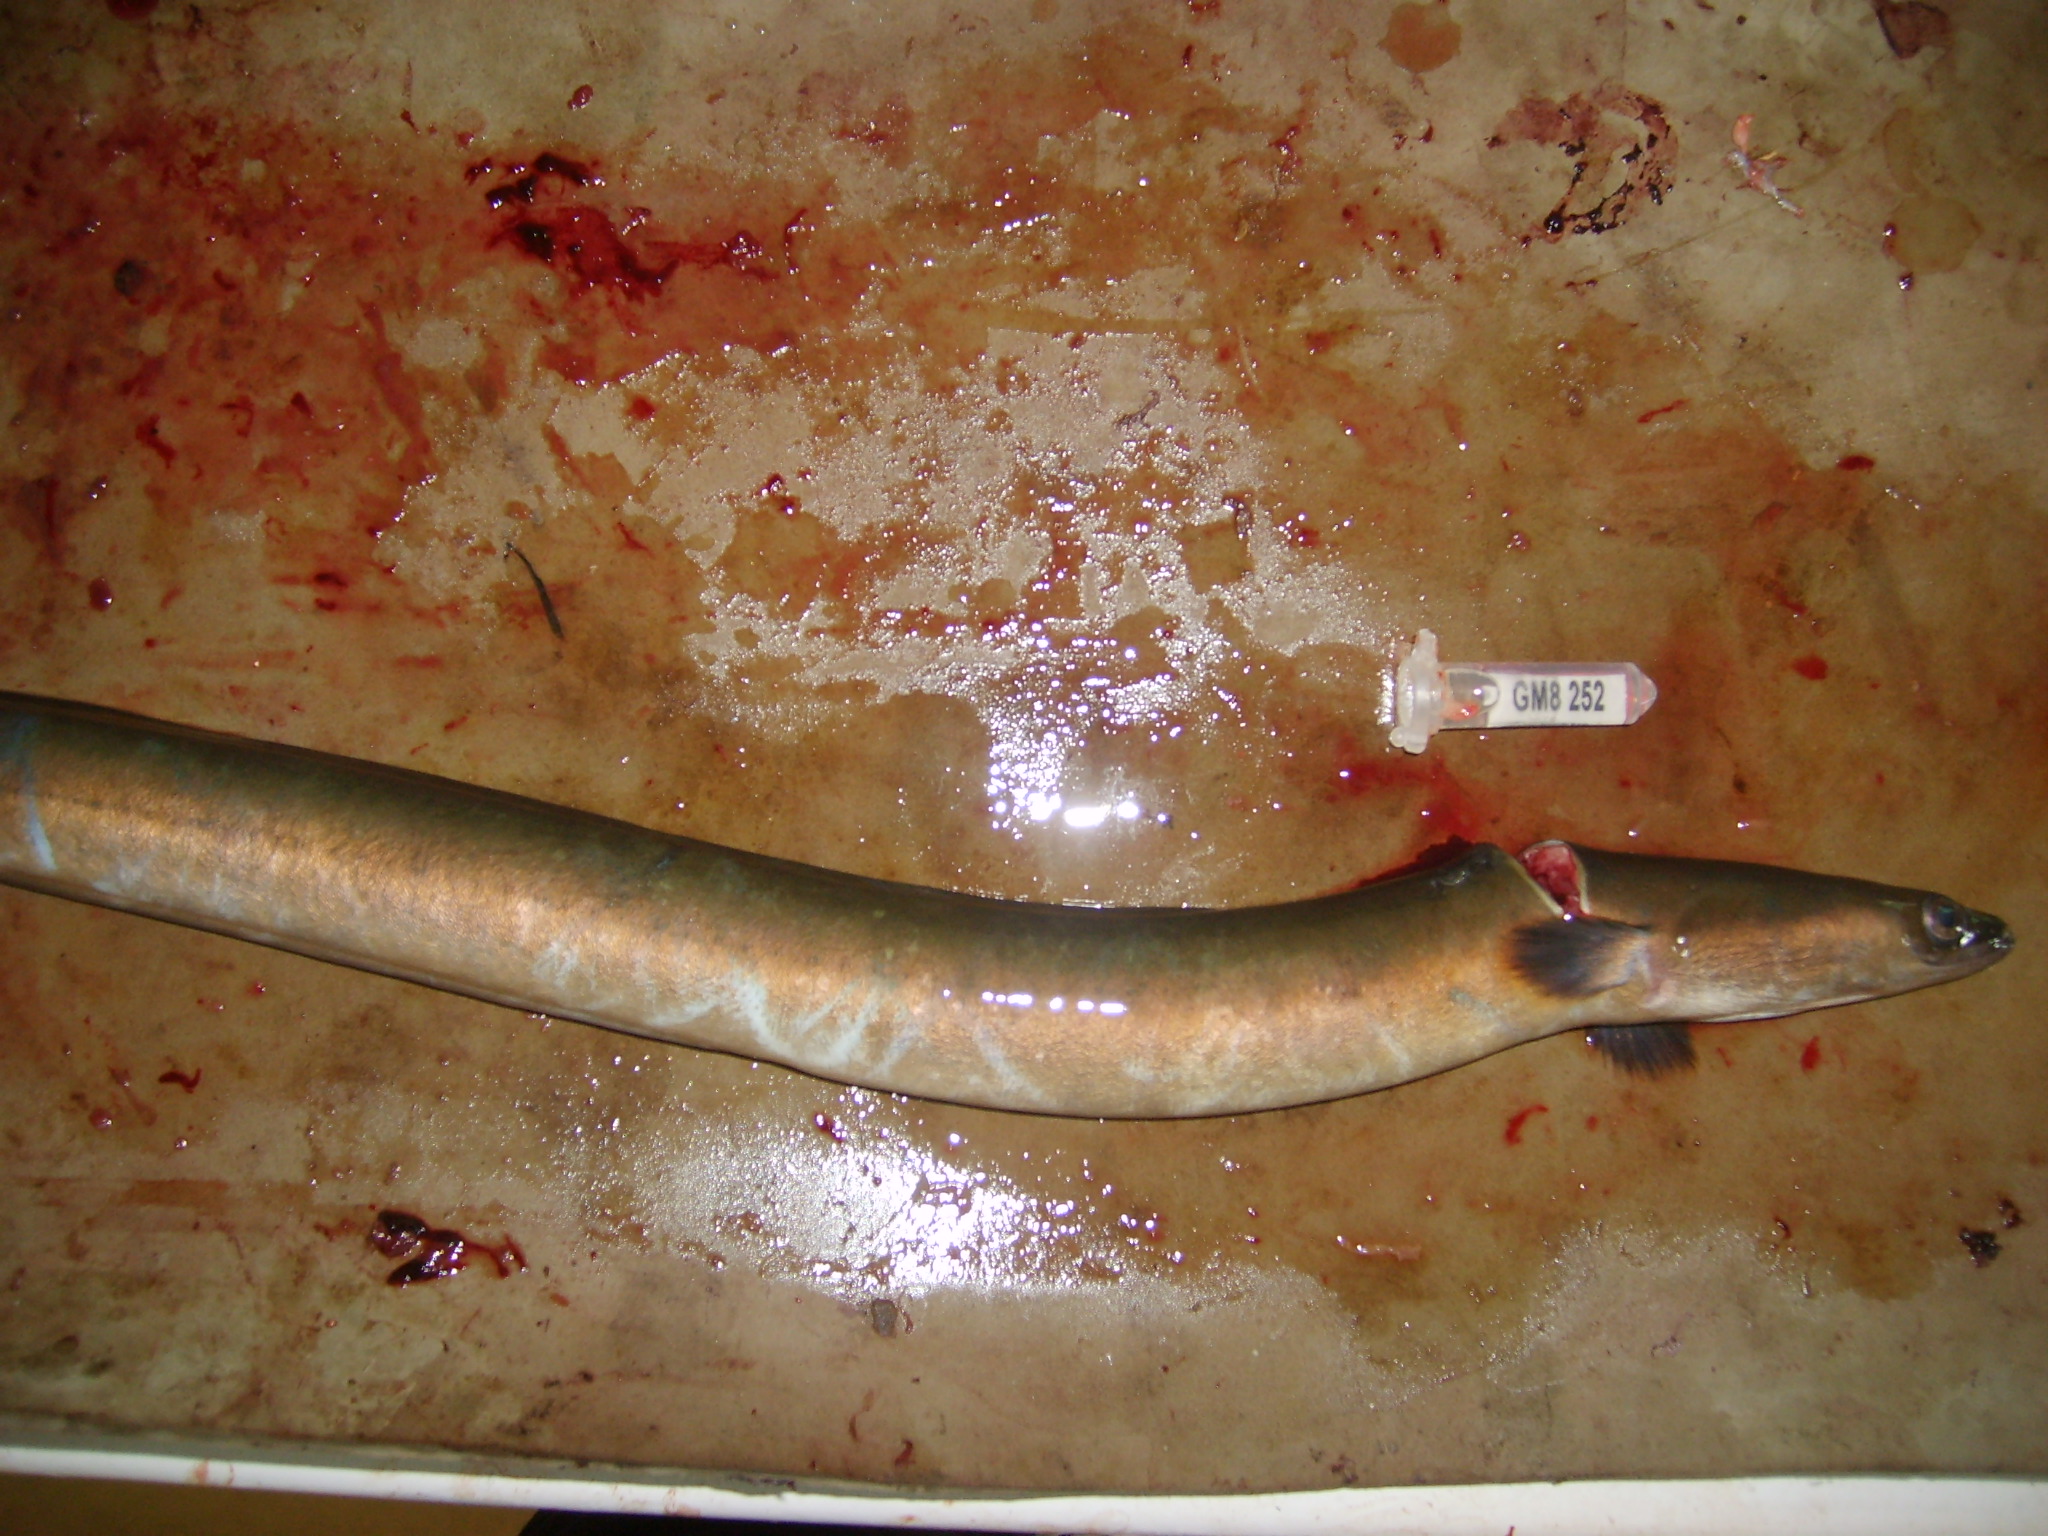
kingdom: Animalia
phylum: Chordata
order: Anguilliformes
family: Anguillidae
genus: Anguilla
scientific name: Anguilla mossambica
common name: African longfin eel
